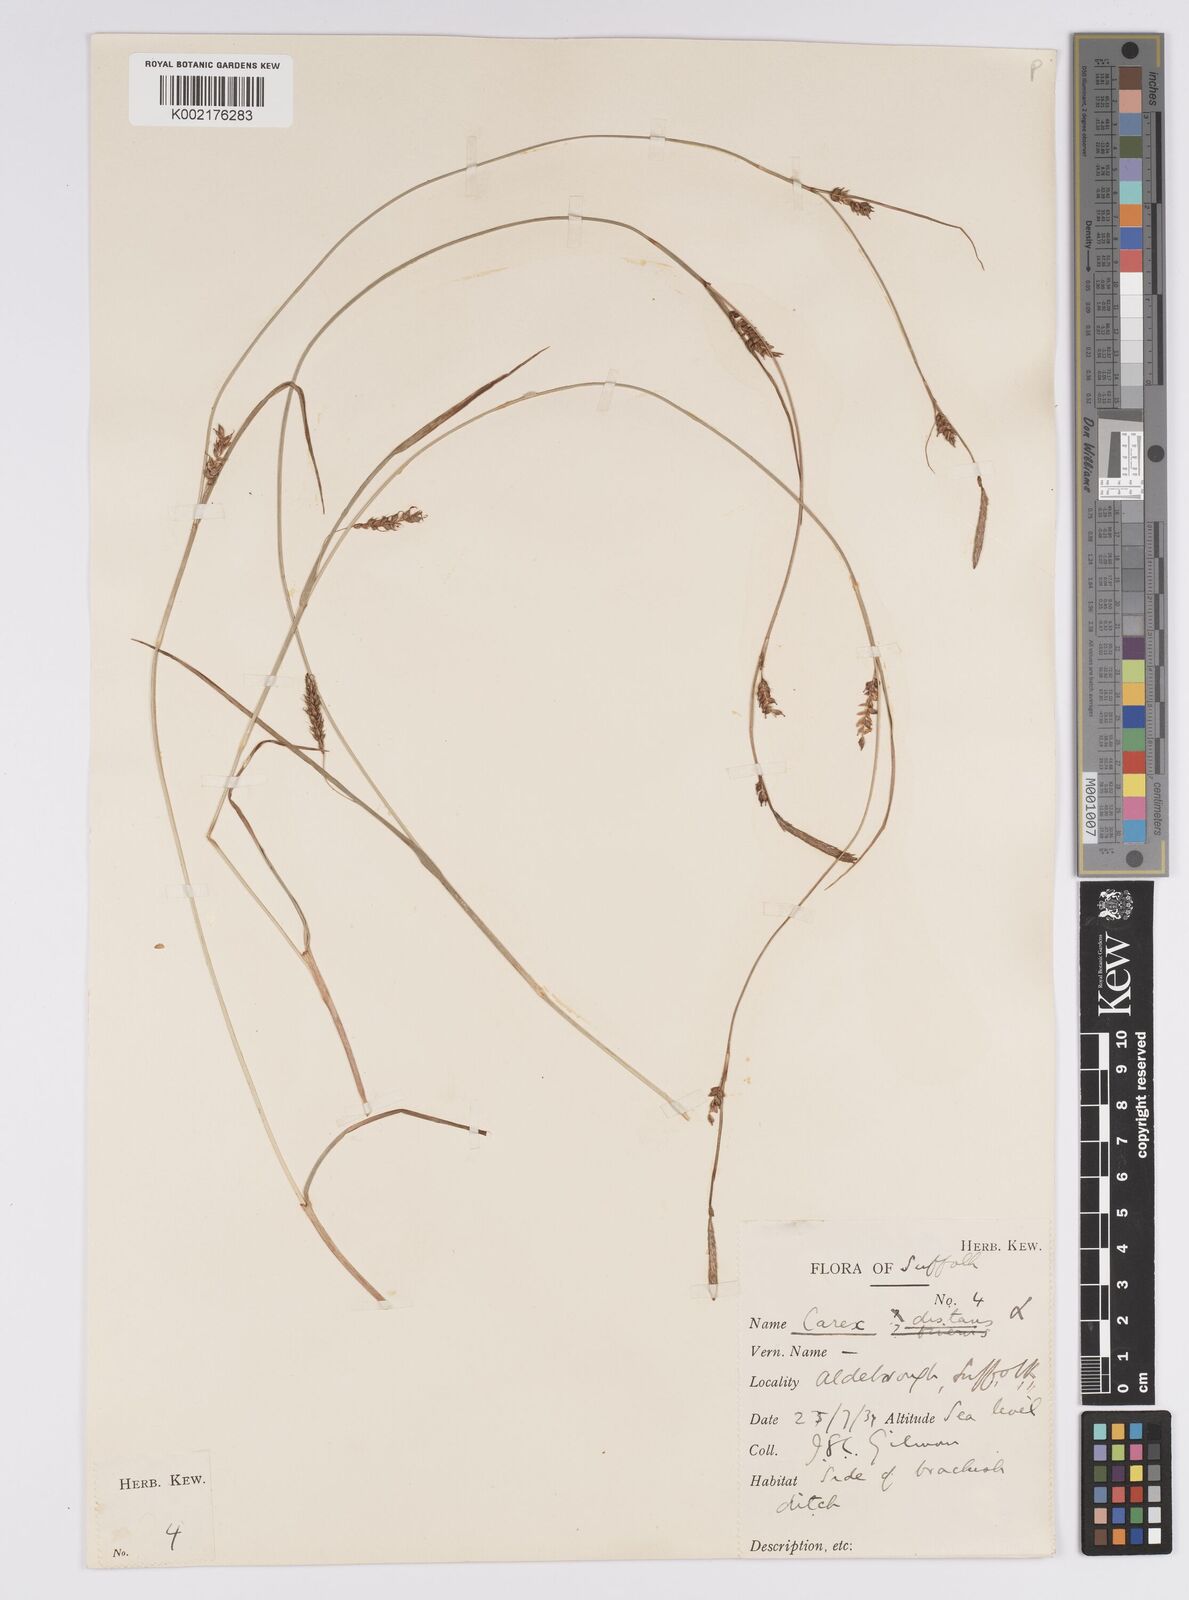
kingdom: Plantae
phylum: Tracheophyta
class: Liliopsida
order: Poales
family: Cyperaceae
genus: Carex
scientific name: Carex distans
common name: Distant sedge
